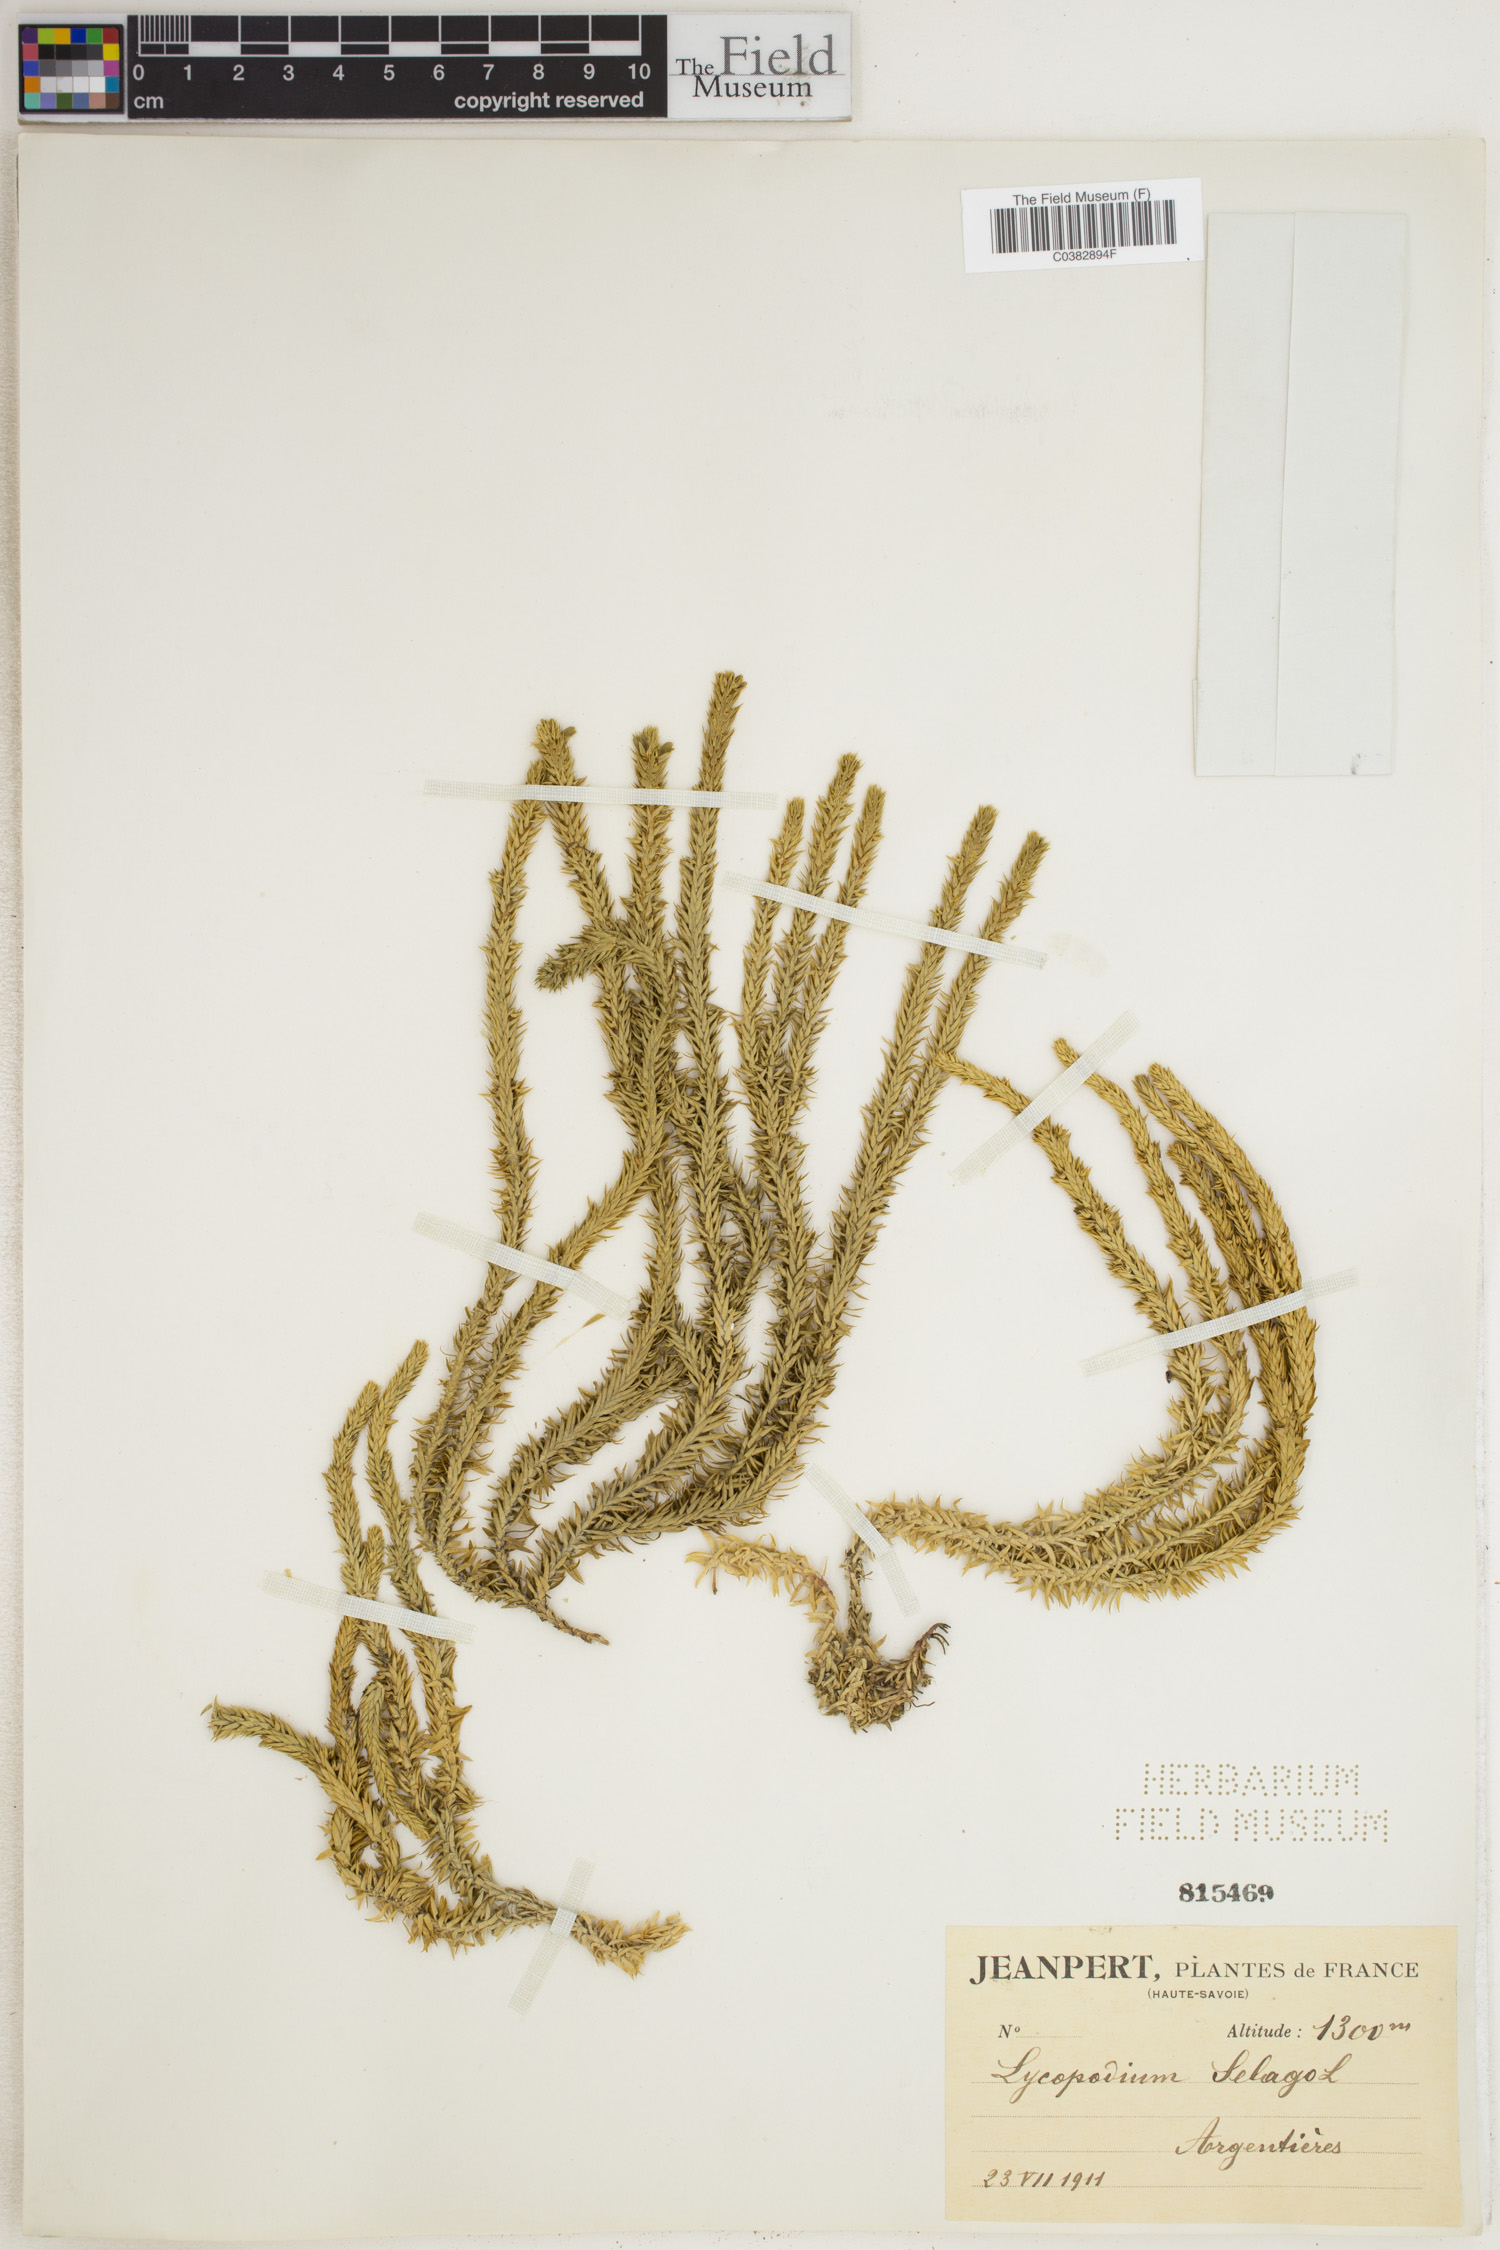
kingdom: Plantae
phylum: Tracheophyta
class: Lycopodiopsida
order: Lycopodiales
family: Lycopodiaceae
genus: Huperzia
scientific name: Huperzia selago
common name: Northern firmoss
